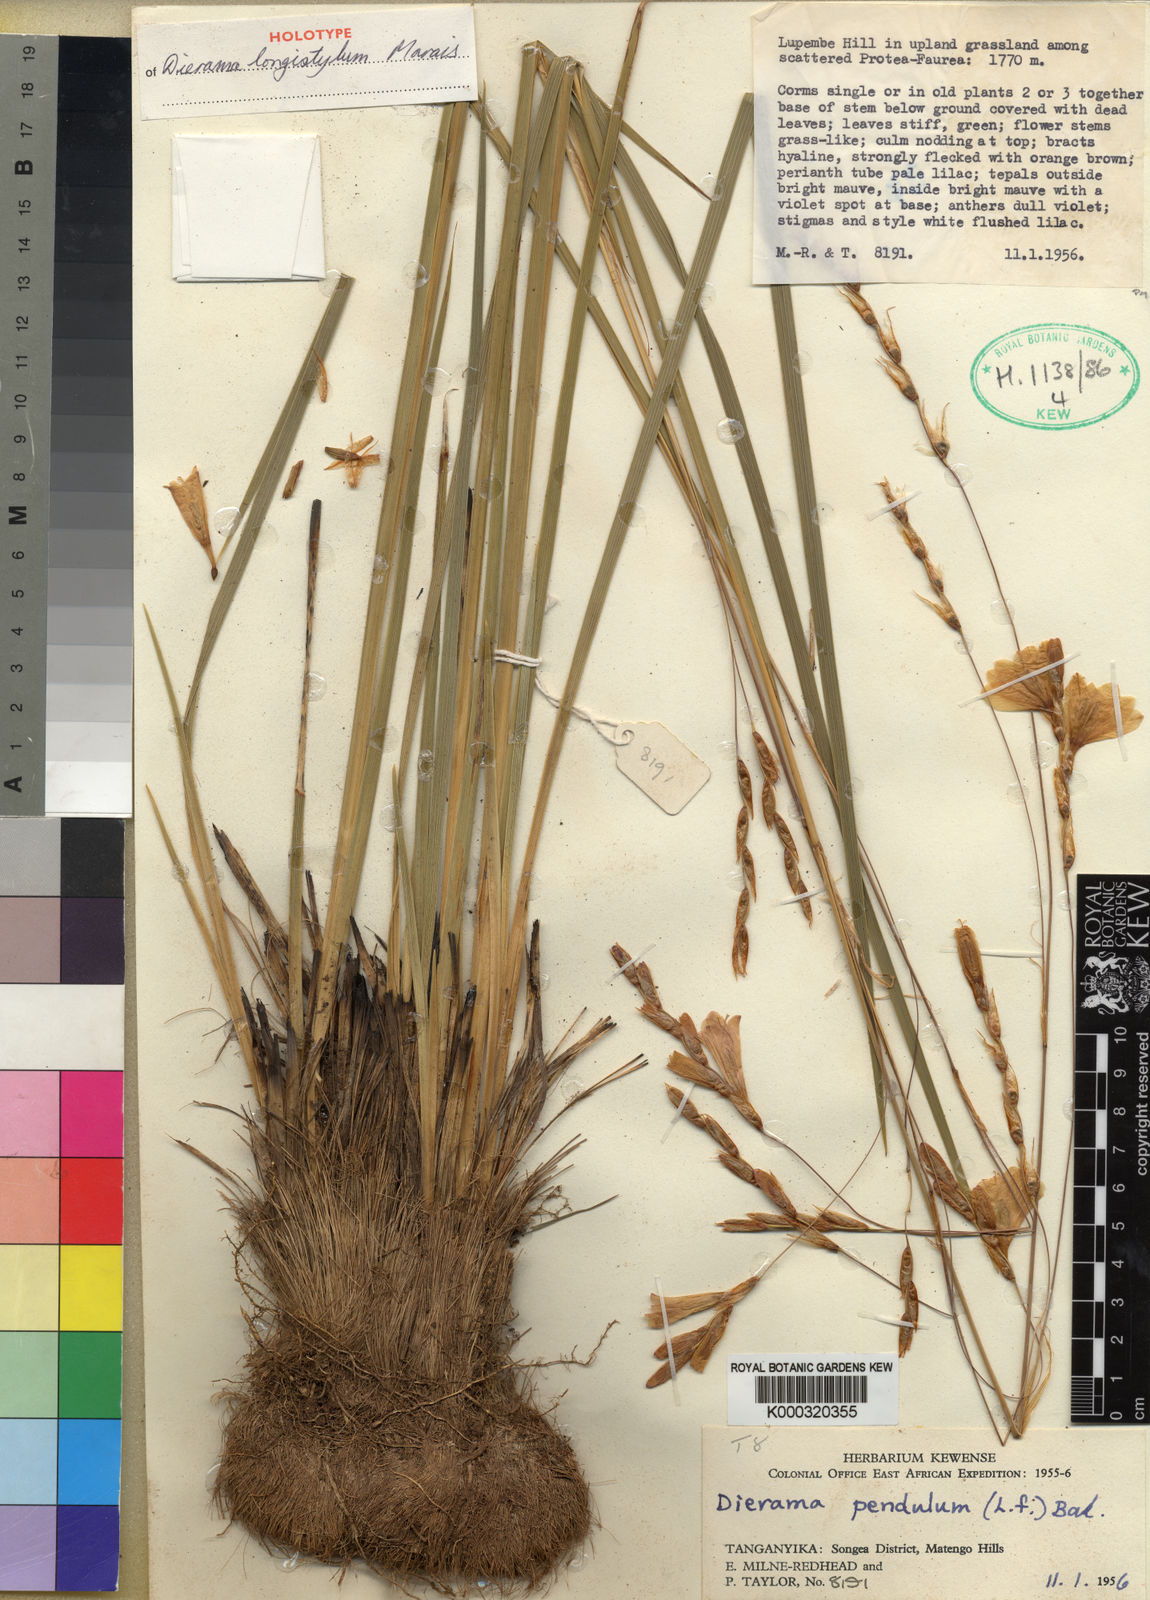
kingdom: Plantae
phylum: Tracheophyta
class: Liliopsida
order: Asparagales
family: Iridaceae
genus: Dierama
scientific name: Dierama longistylum
